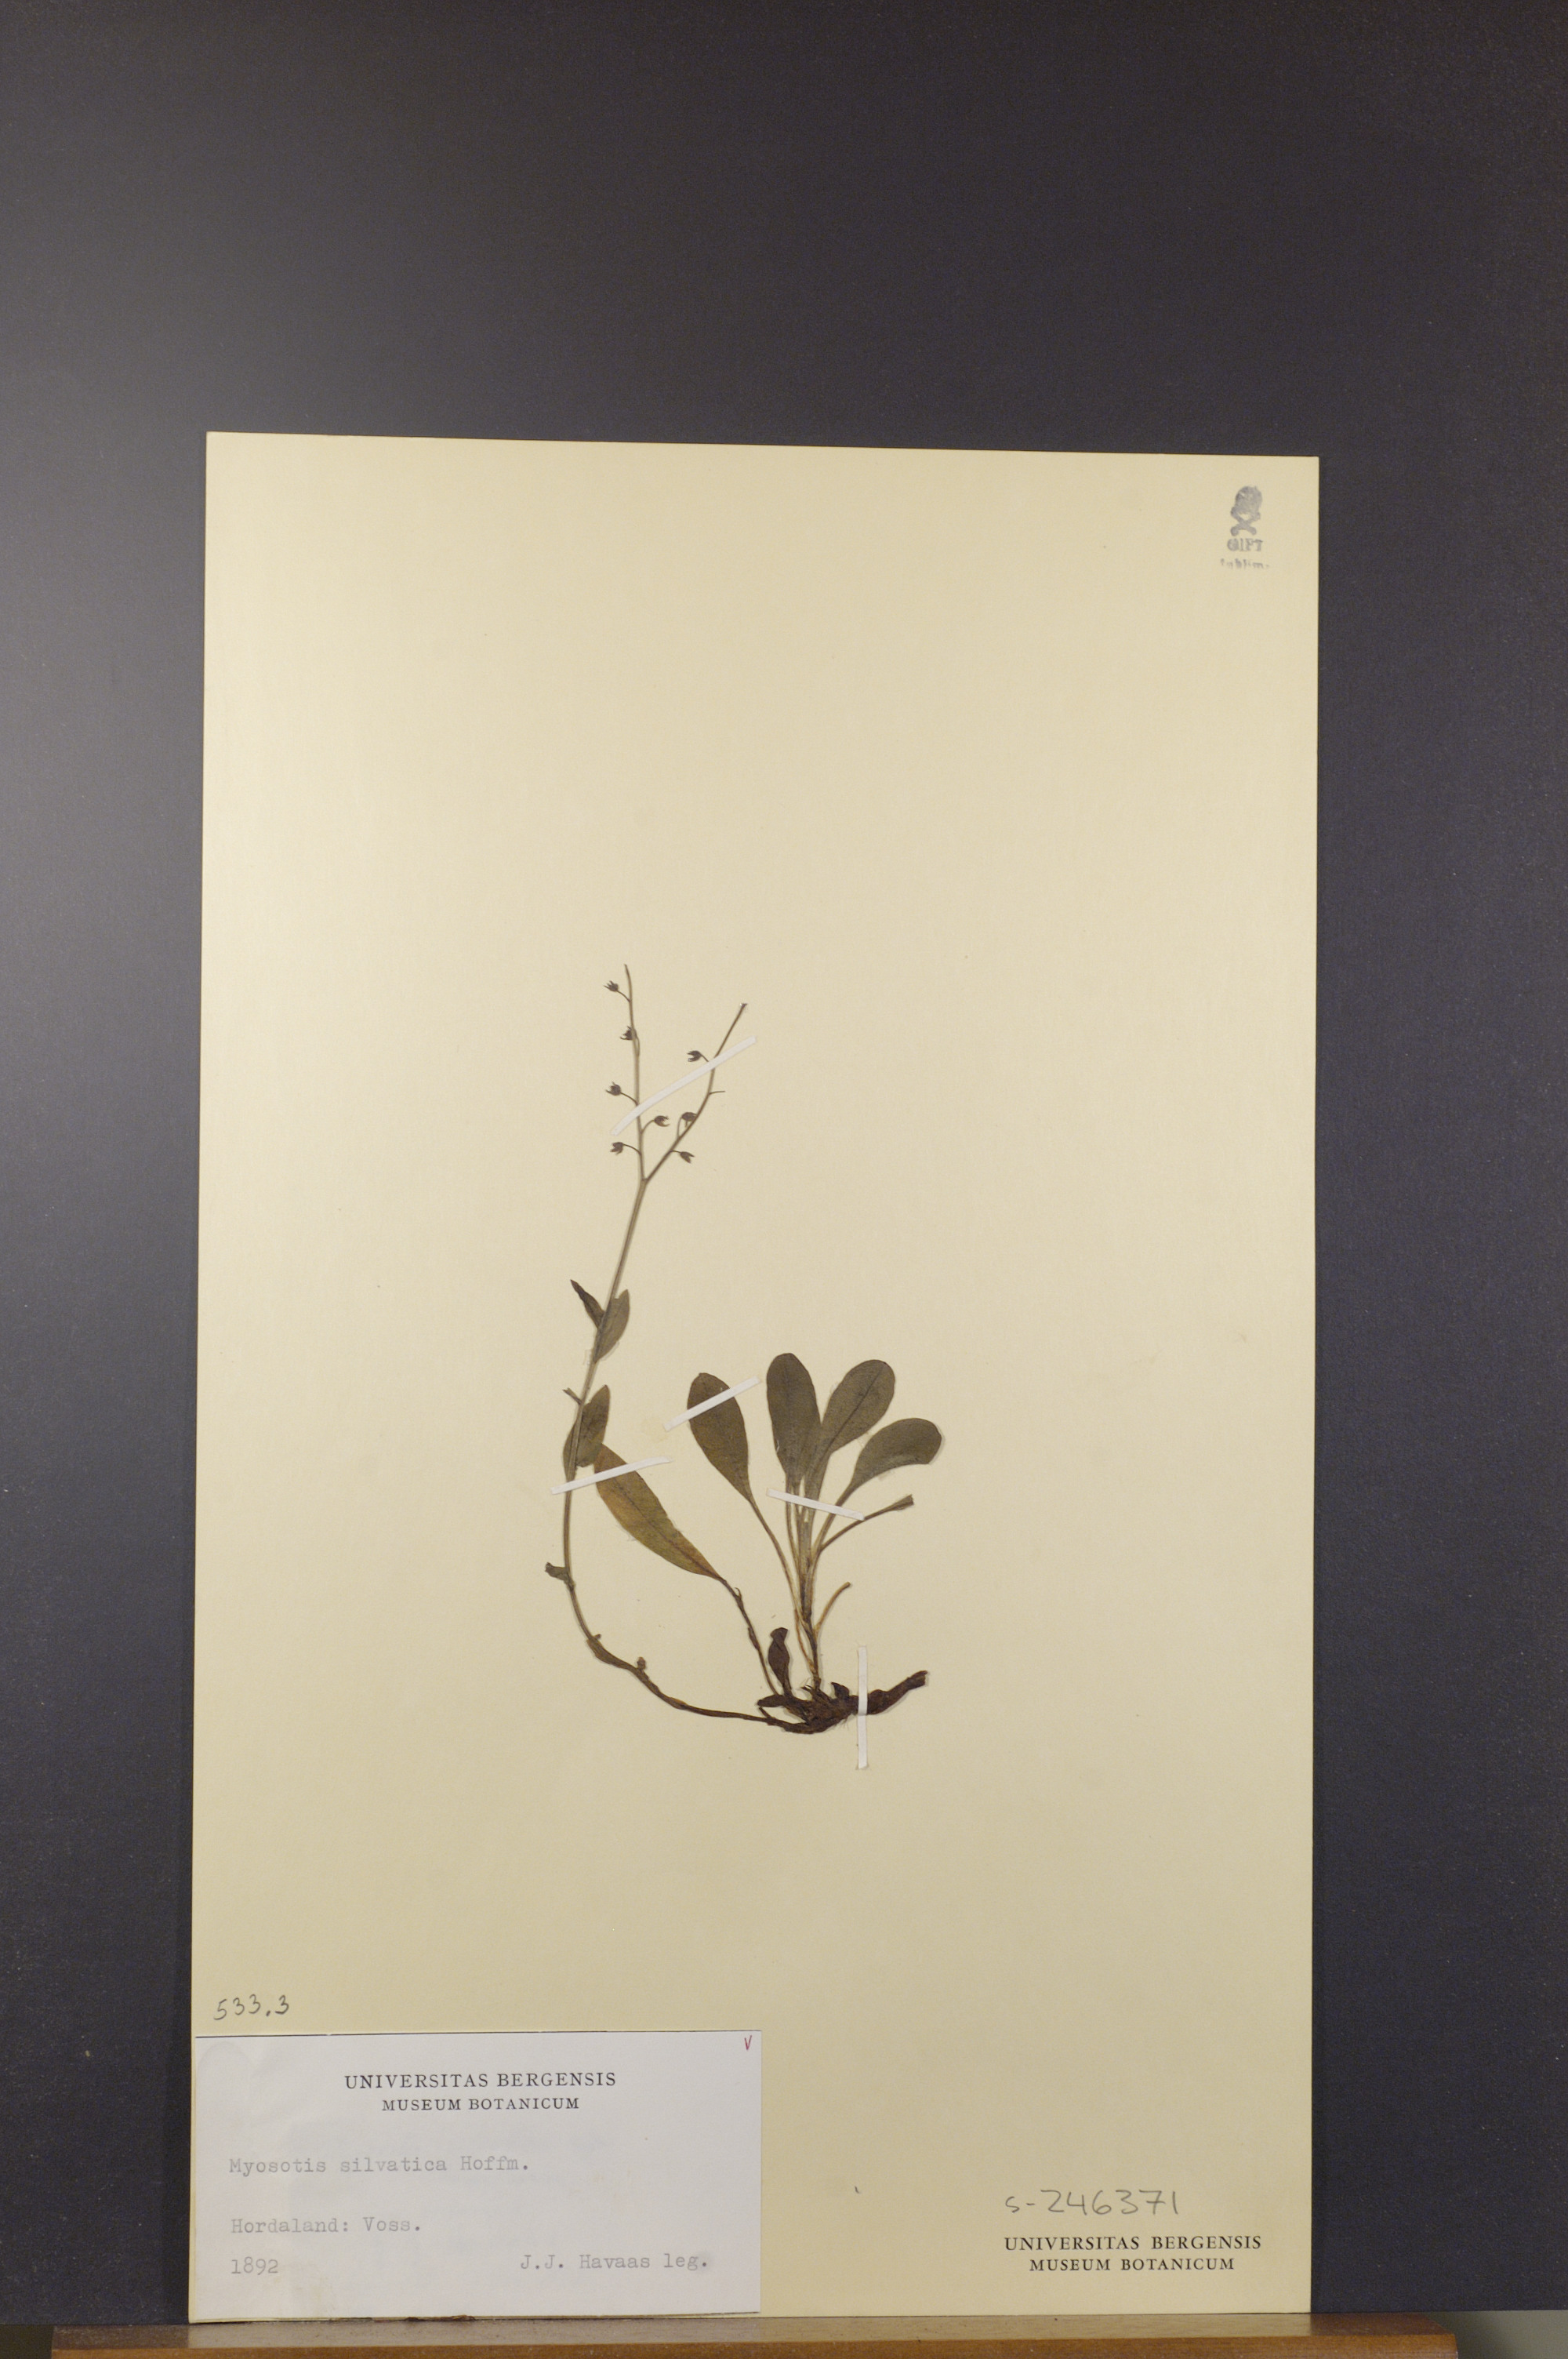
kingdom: Plantae
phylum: Tracheophyta
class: Magnoliopsida
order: Boraginales
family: Boraginaceae
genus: Myosotis
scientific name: Myosotis decumbens
